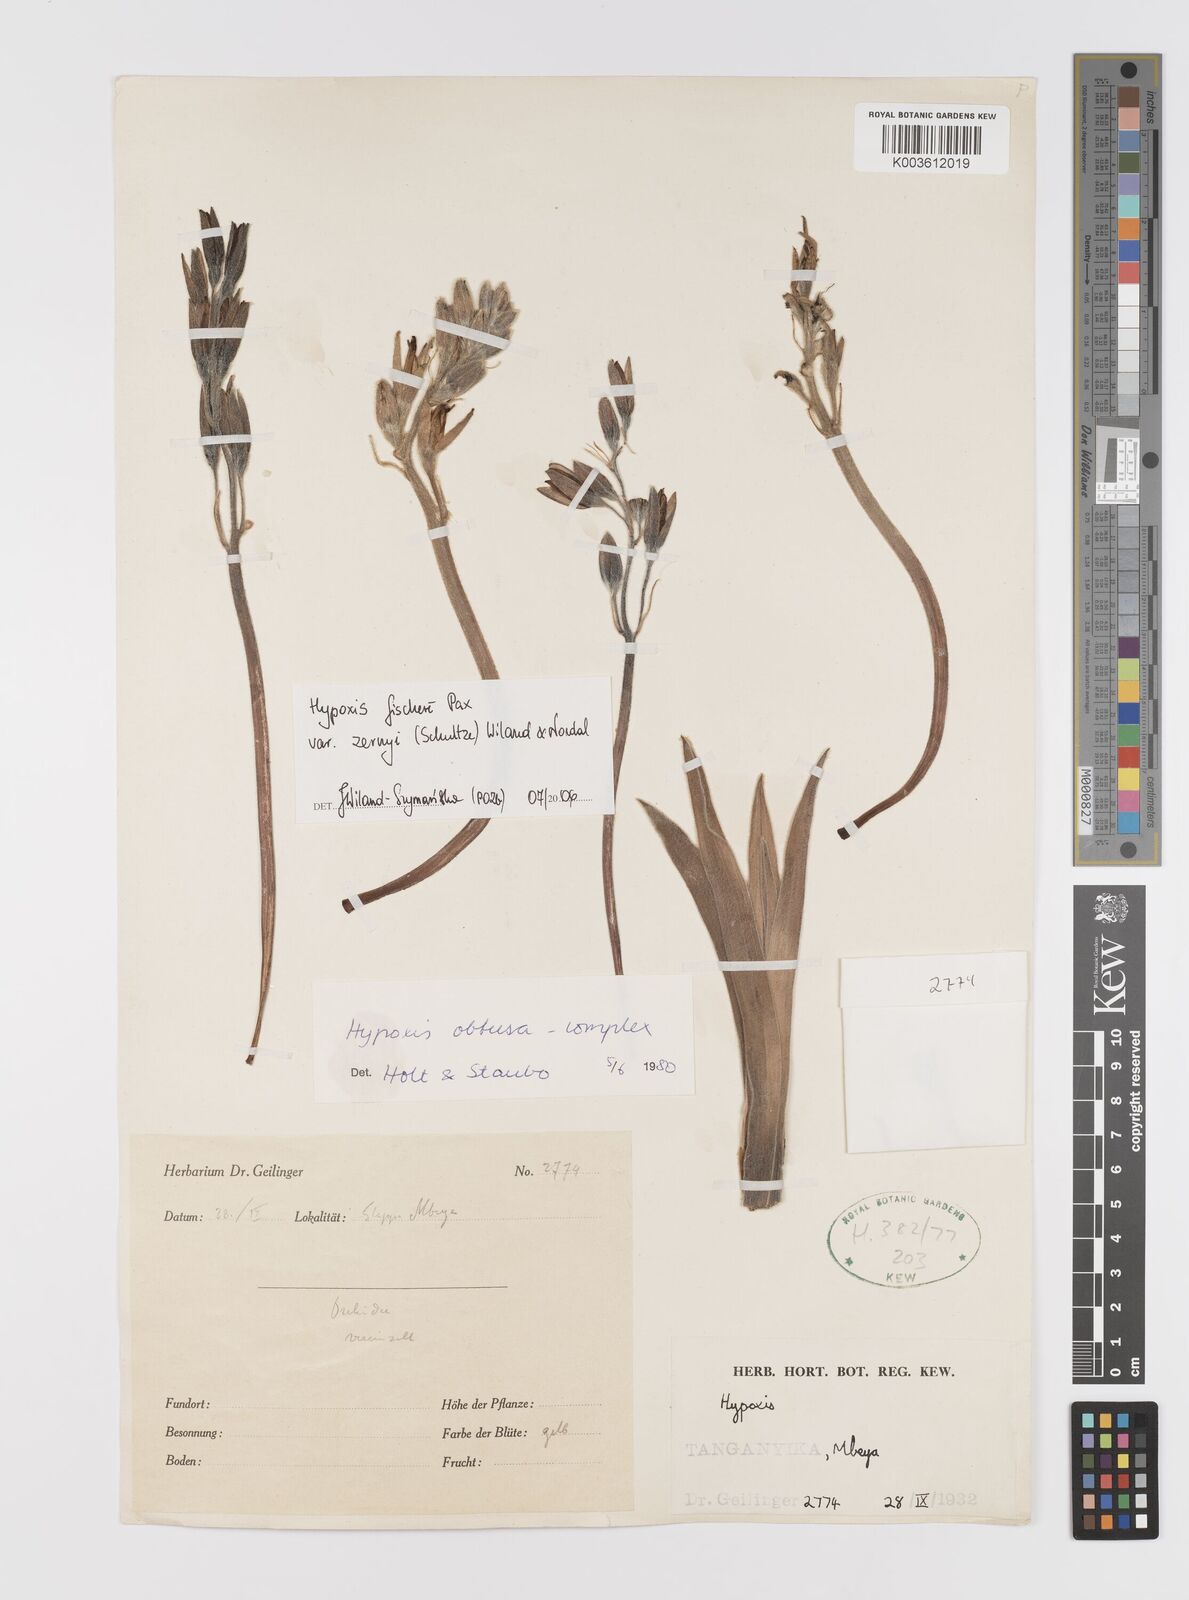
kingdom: Plantae
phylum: Tracheophyta
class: Liliopsida
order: Asparagales
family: Hypoxidaceae
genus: Hypoxis
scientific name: Hypoxis fischeri
